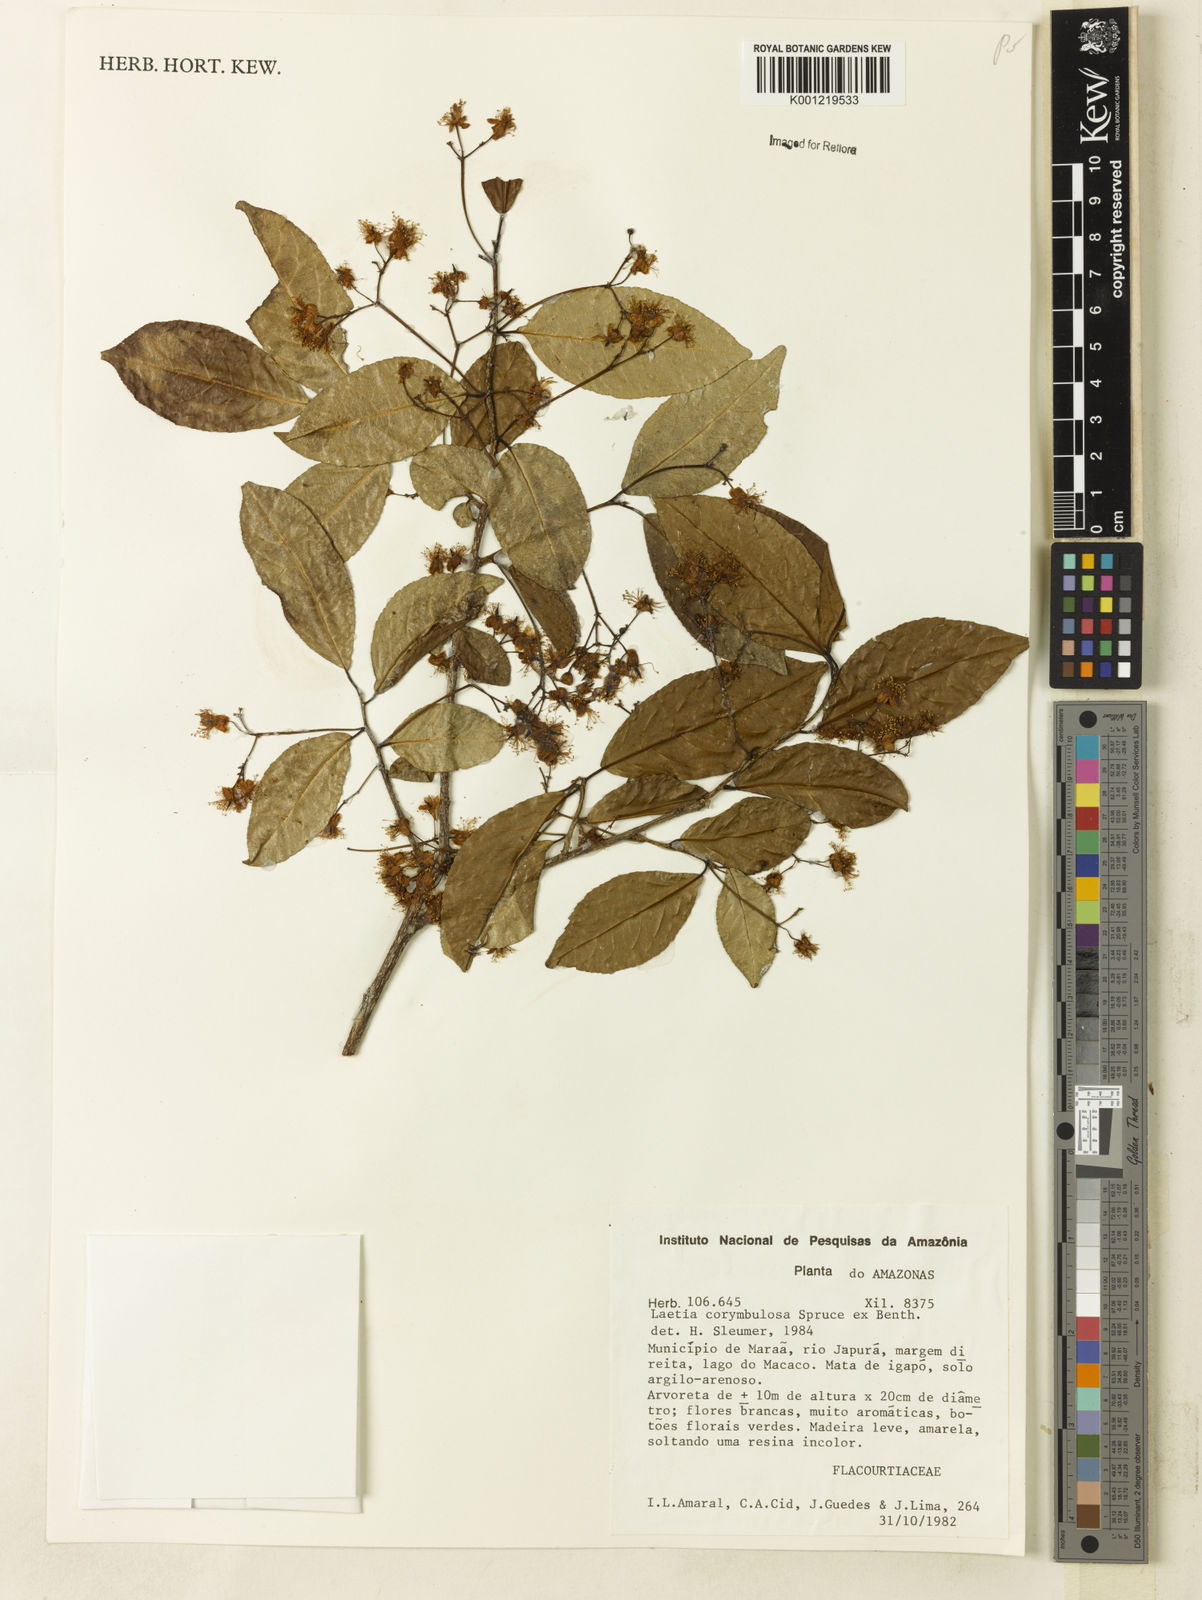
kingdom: Plantae
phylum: Tracheophyta
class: Magnoliopsida
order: Malpighiales
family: Salicaceae
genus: Casearia
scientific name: Casearia corymbulosa
